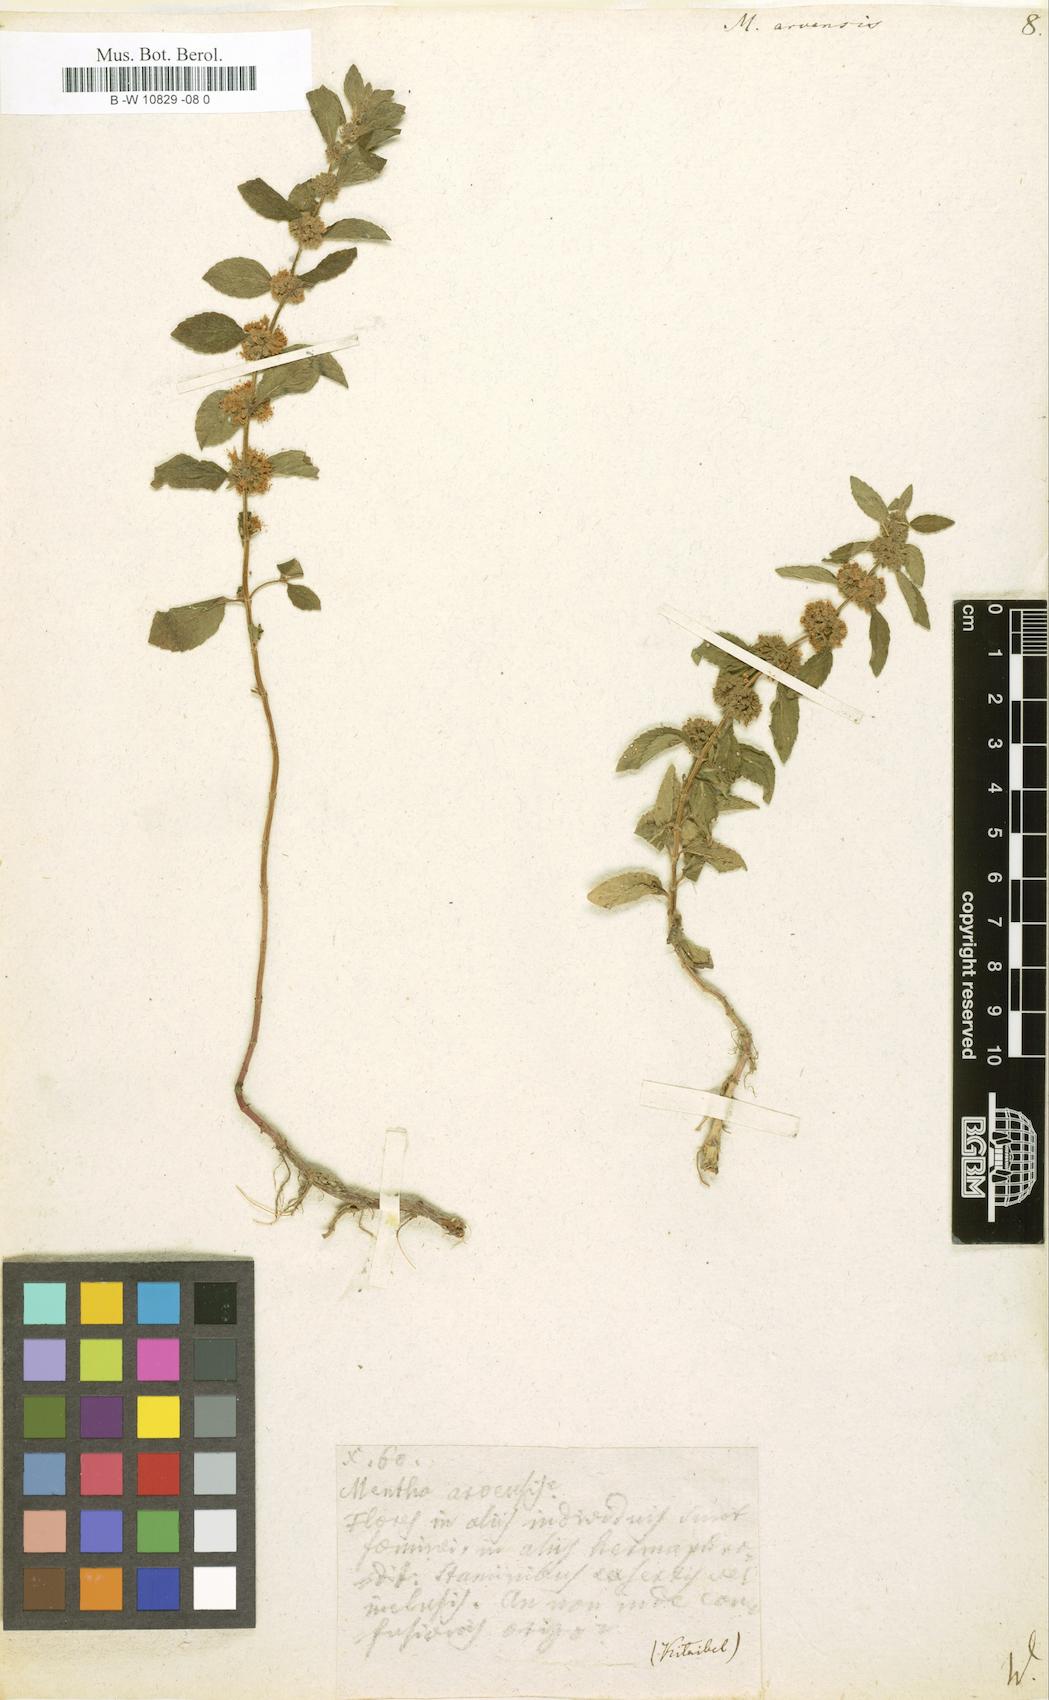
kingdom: Plantae
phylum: Tracheophyta
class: Magnoliopsida
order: Lamiales
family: Lamiaceae
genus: Mentha
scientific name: Mentha arvensis
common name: Corn mint
